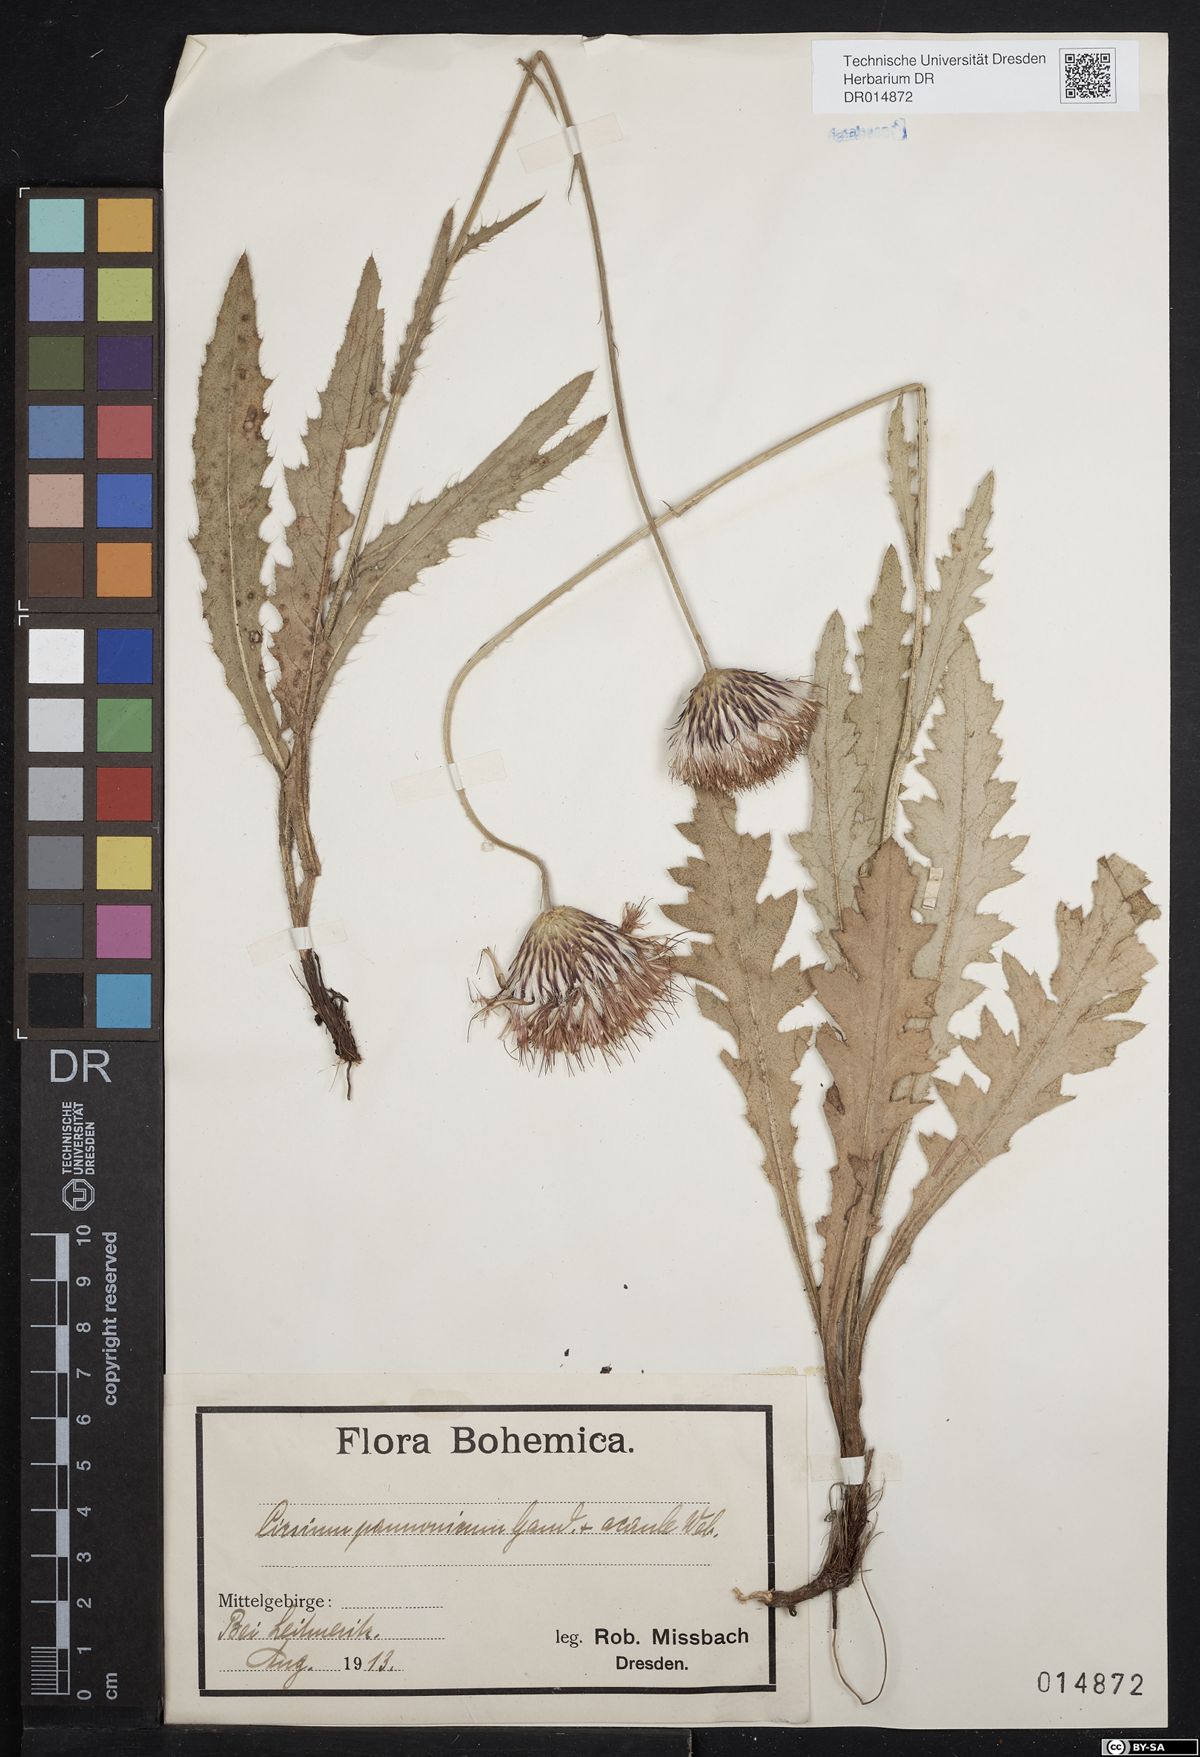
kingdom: Plantae
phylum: Tracheophyta
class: Magnoliopsida
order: Asterales
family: Asteraceae
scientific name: Asteraceae
